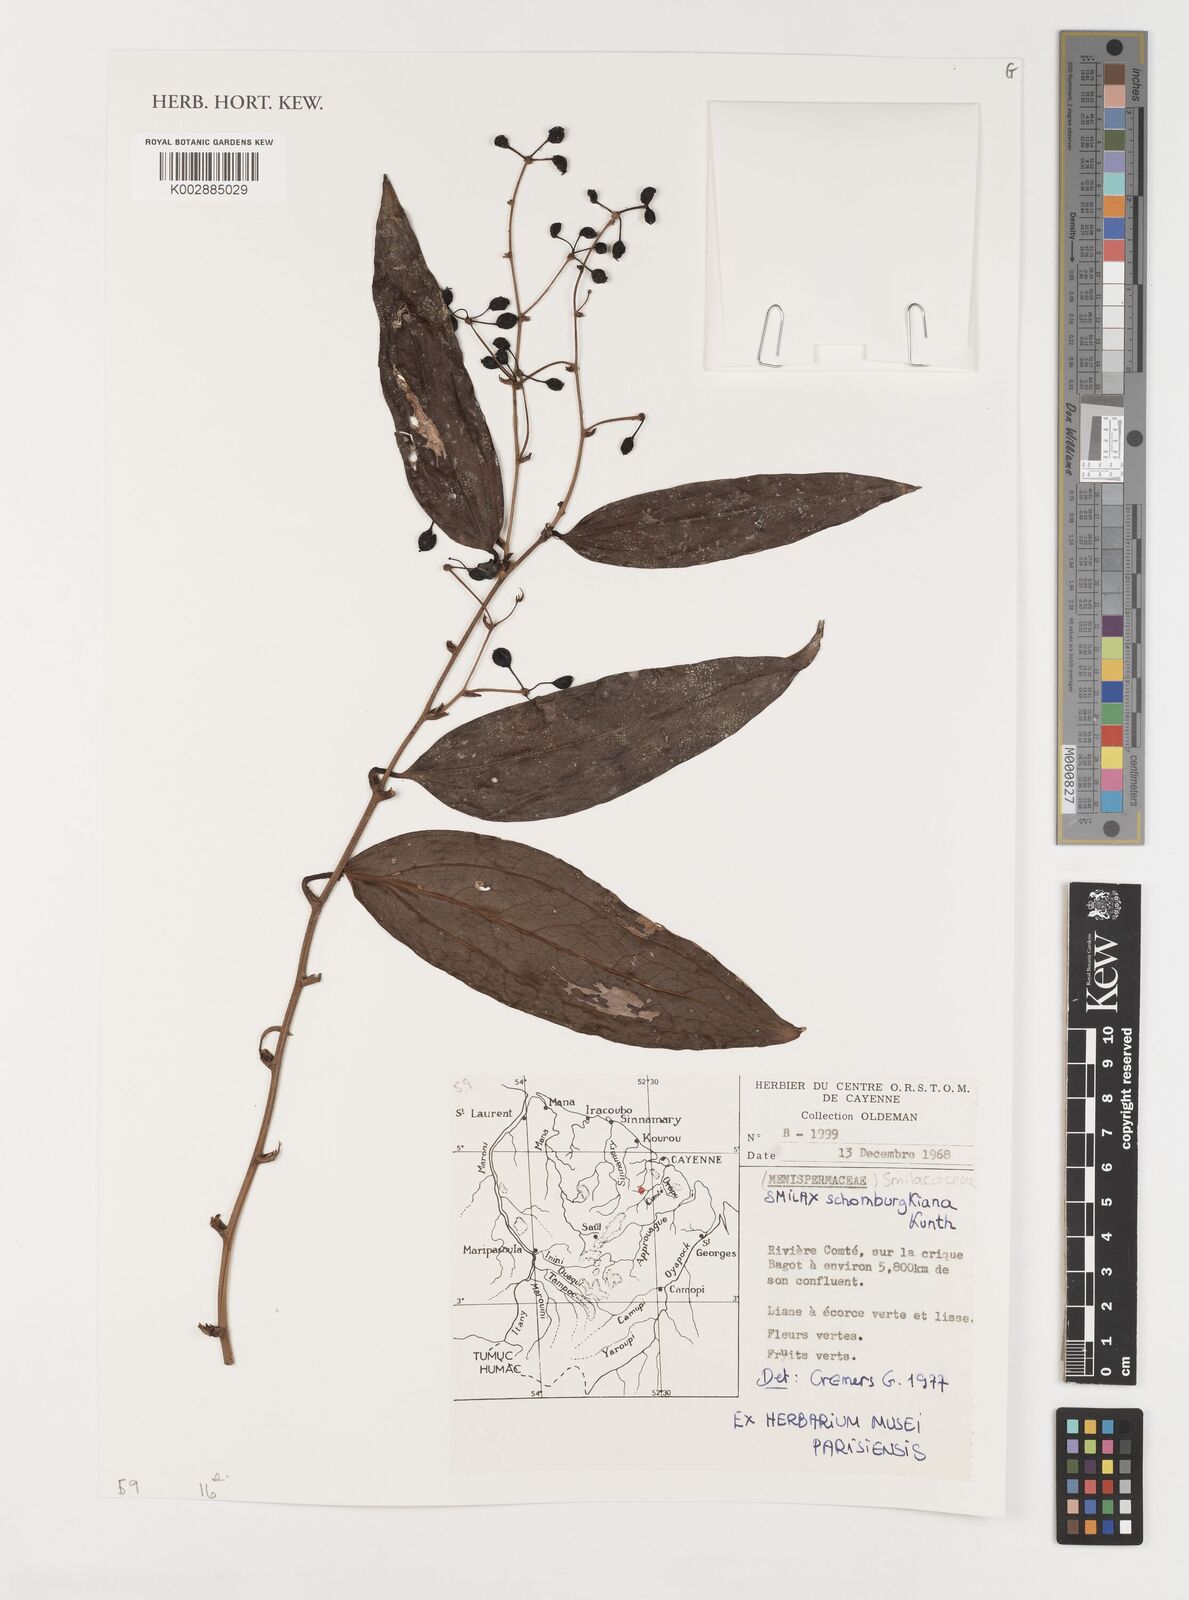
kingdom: Plantae
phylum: Tracheophyta
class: Liliopsida
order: Liliales
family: Smilacaceae
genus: Smilax
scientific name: Smilax schomburgkiana
